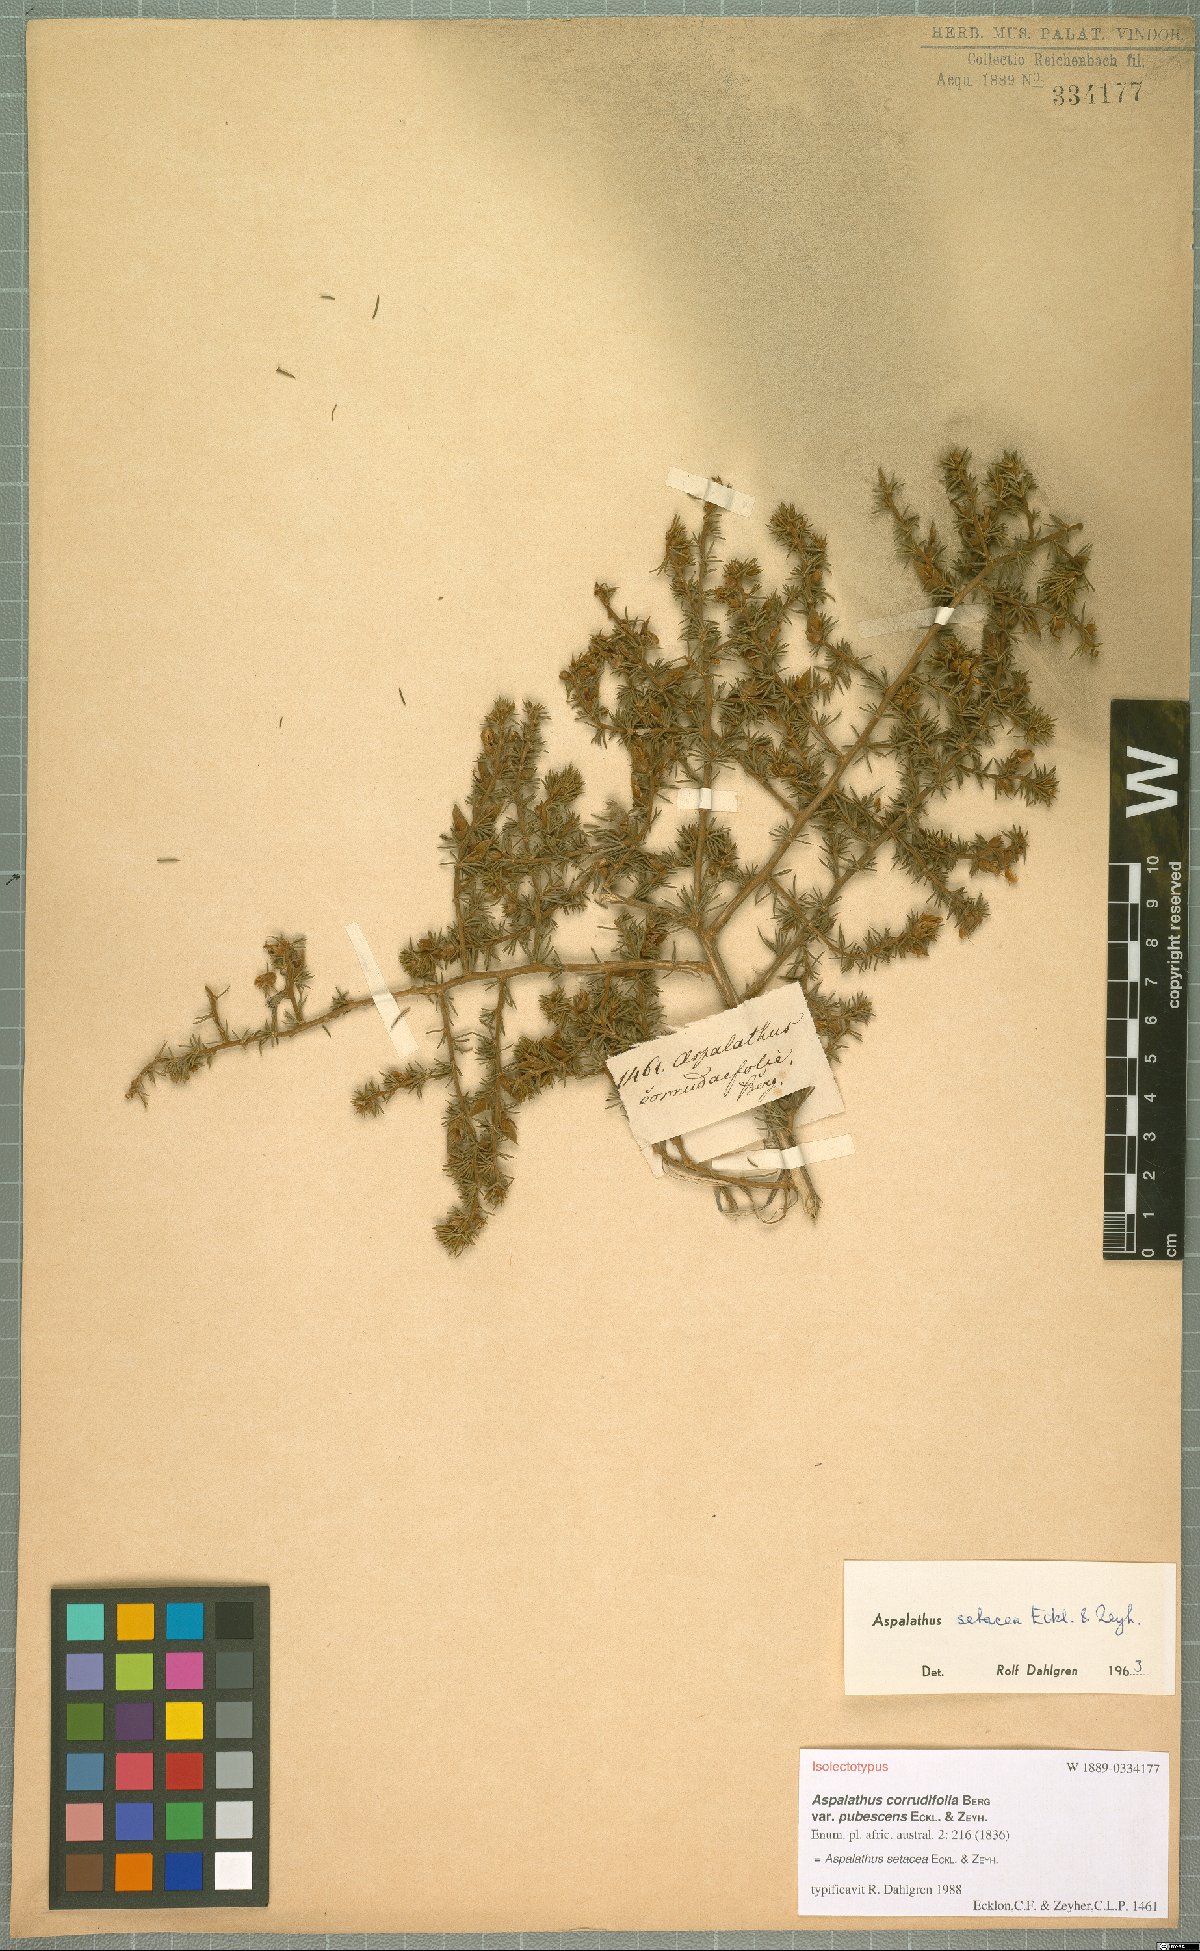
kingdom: Plantae
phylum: Tracheophyta
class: Magnoliopsida
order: Fabales
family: Fabaceae
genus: Aspalathus
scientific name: Aspalathus setacea
